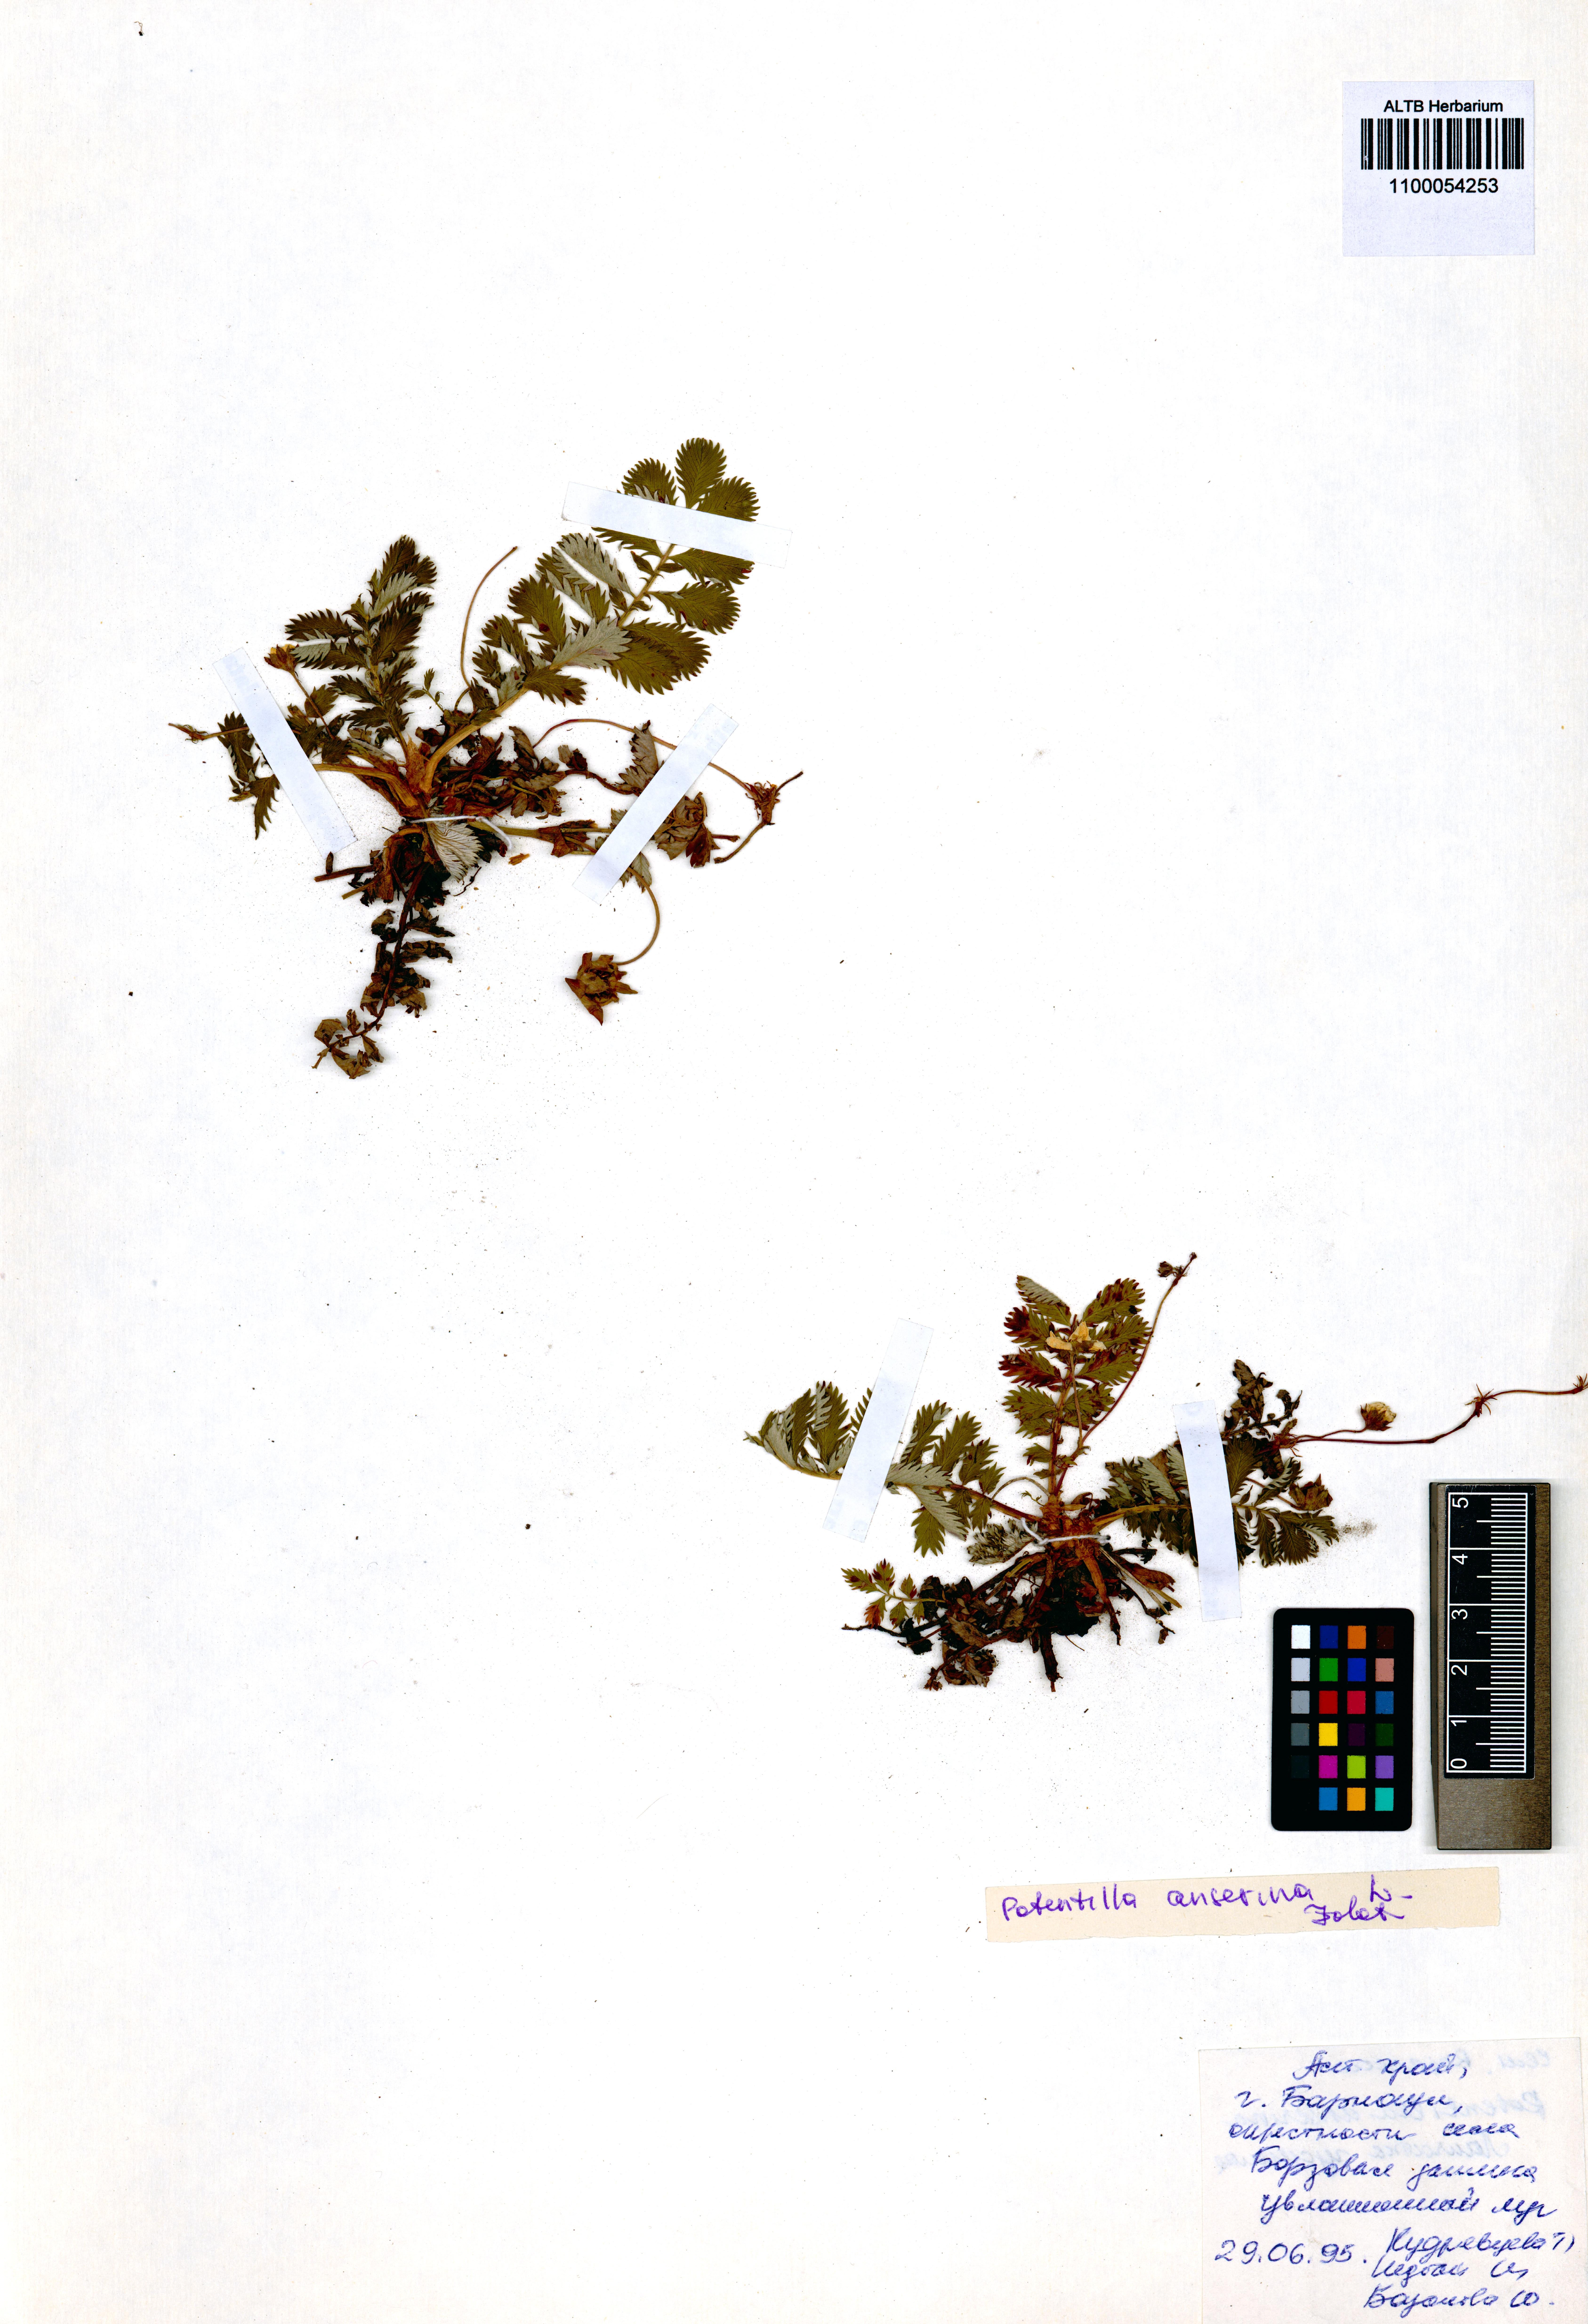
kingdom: Plantae
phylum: Tracheophyta
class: Magnoliopsida
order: Rosales
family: Rosaceae
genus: Argentina
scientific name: Argentina anserina
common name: Common silverweed
